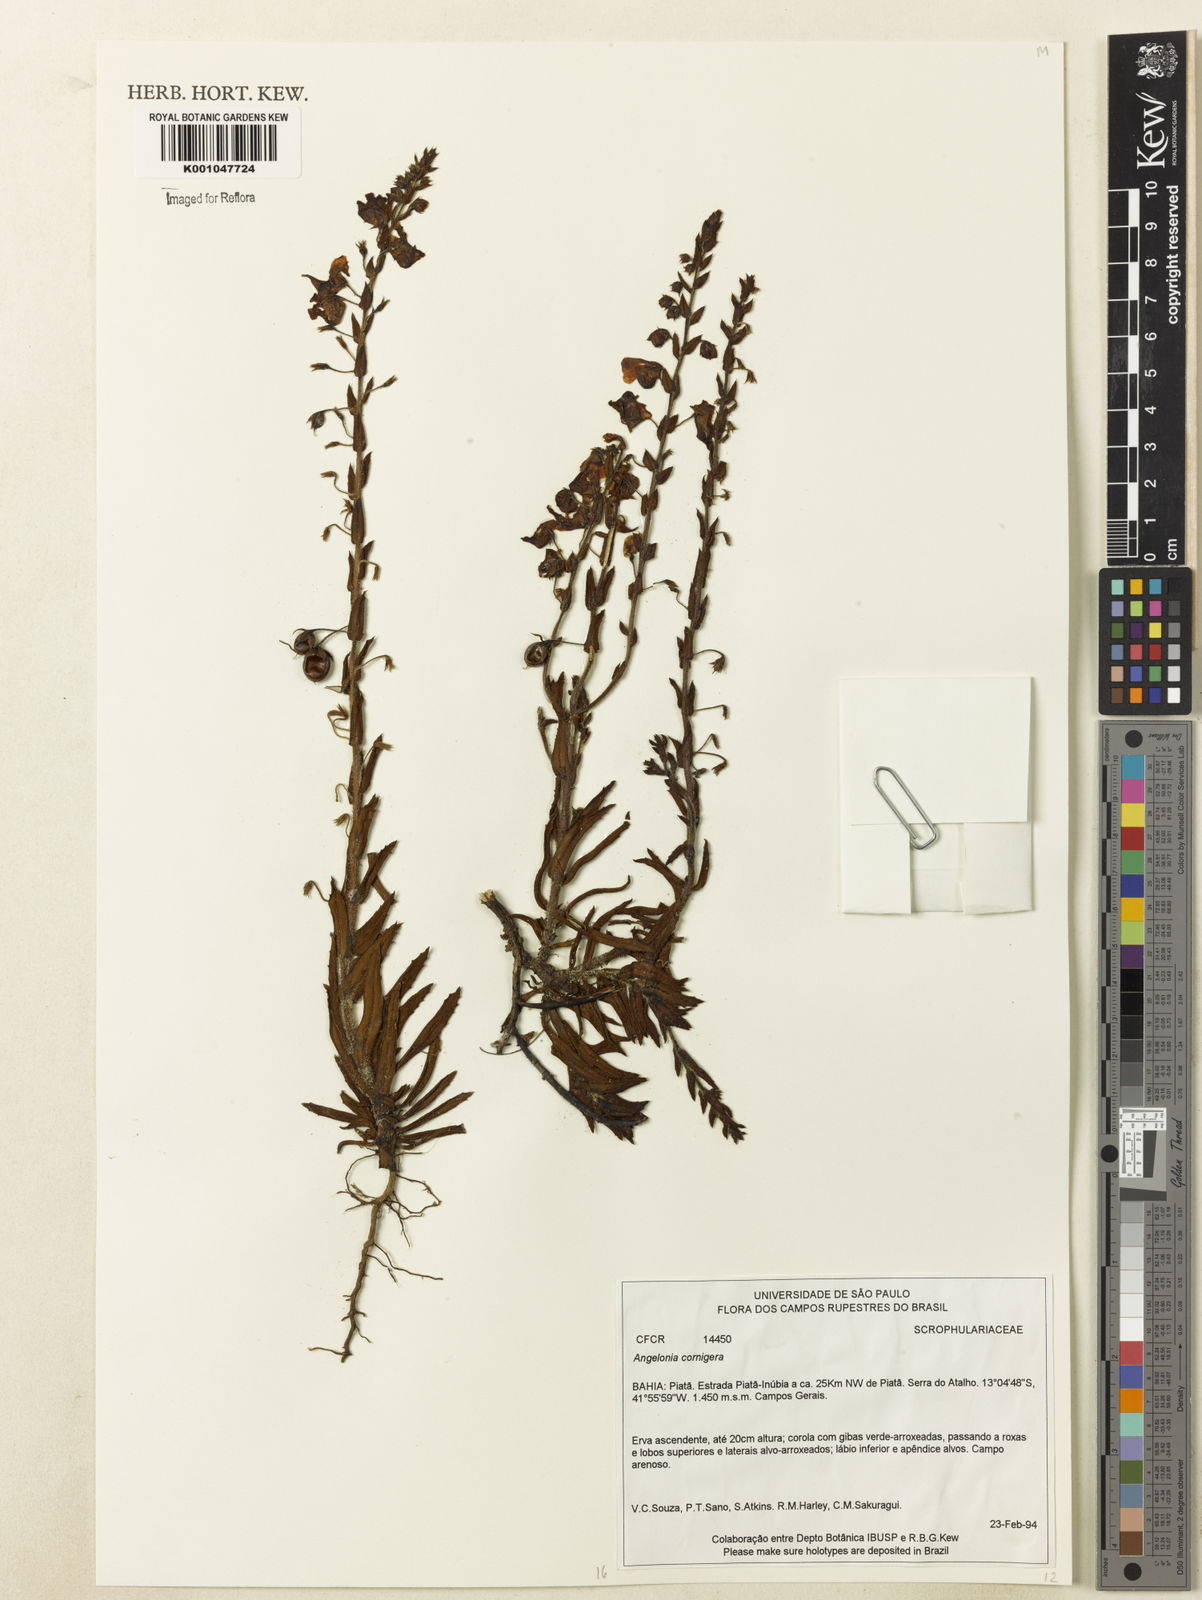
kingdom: Plantae
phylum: Tracheophyta
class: Magnoliopsida
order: Lamiales
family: Plantaginaceae
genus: Angelonia
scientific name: Angelonia cornigera
